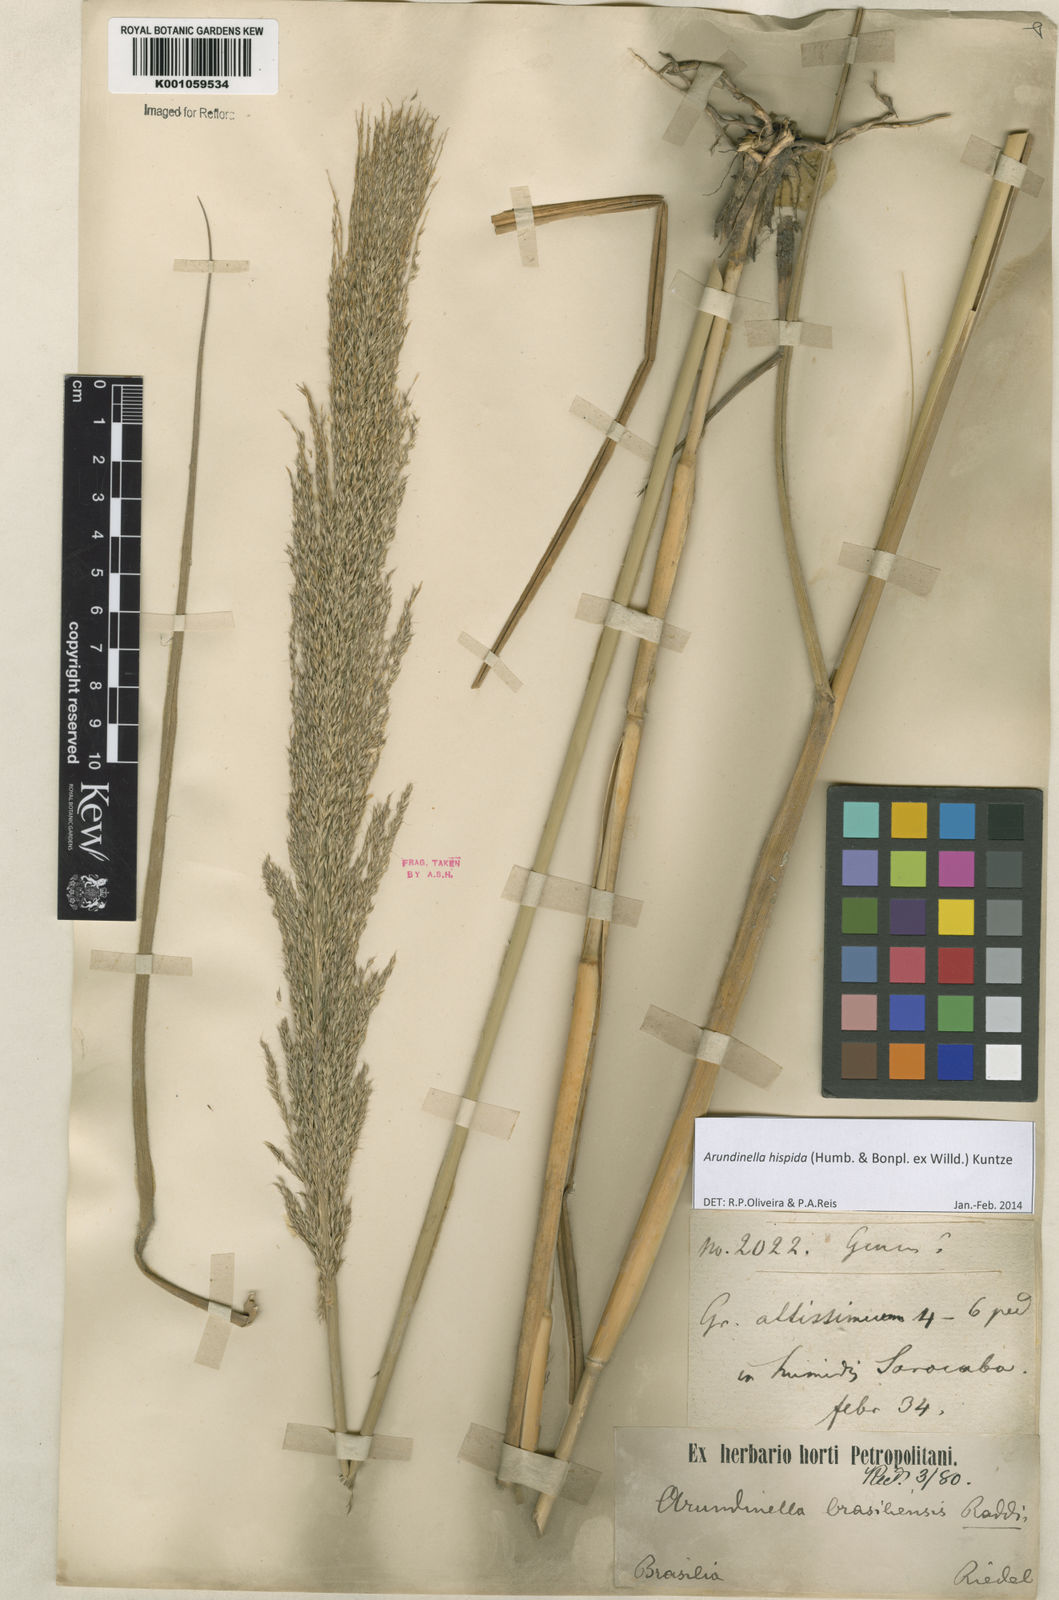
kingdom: Plantae
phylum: Tracheophyta
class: Liliopsida
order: Poales
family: Poaceae
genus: Arundinella
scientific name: Arundinella hispida
